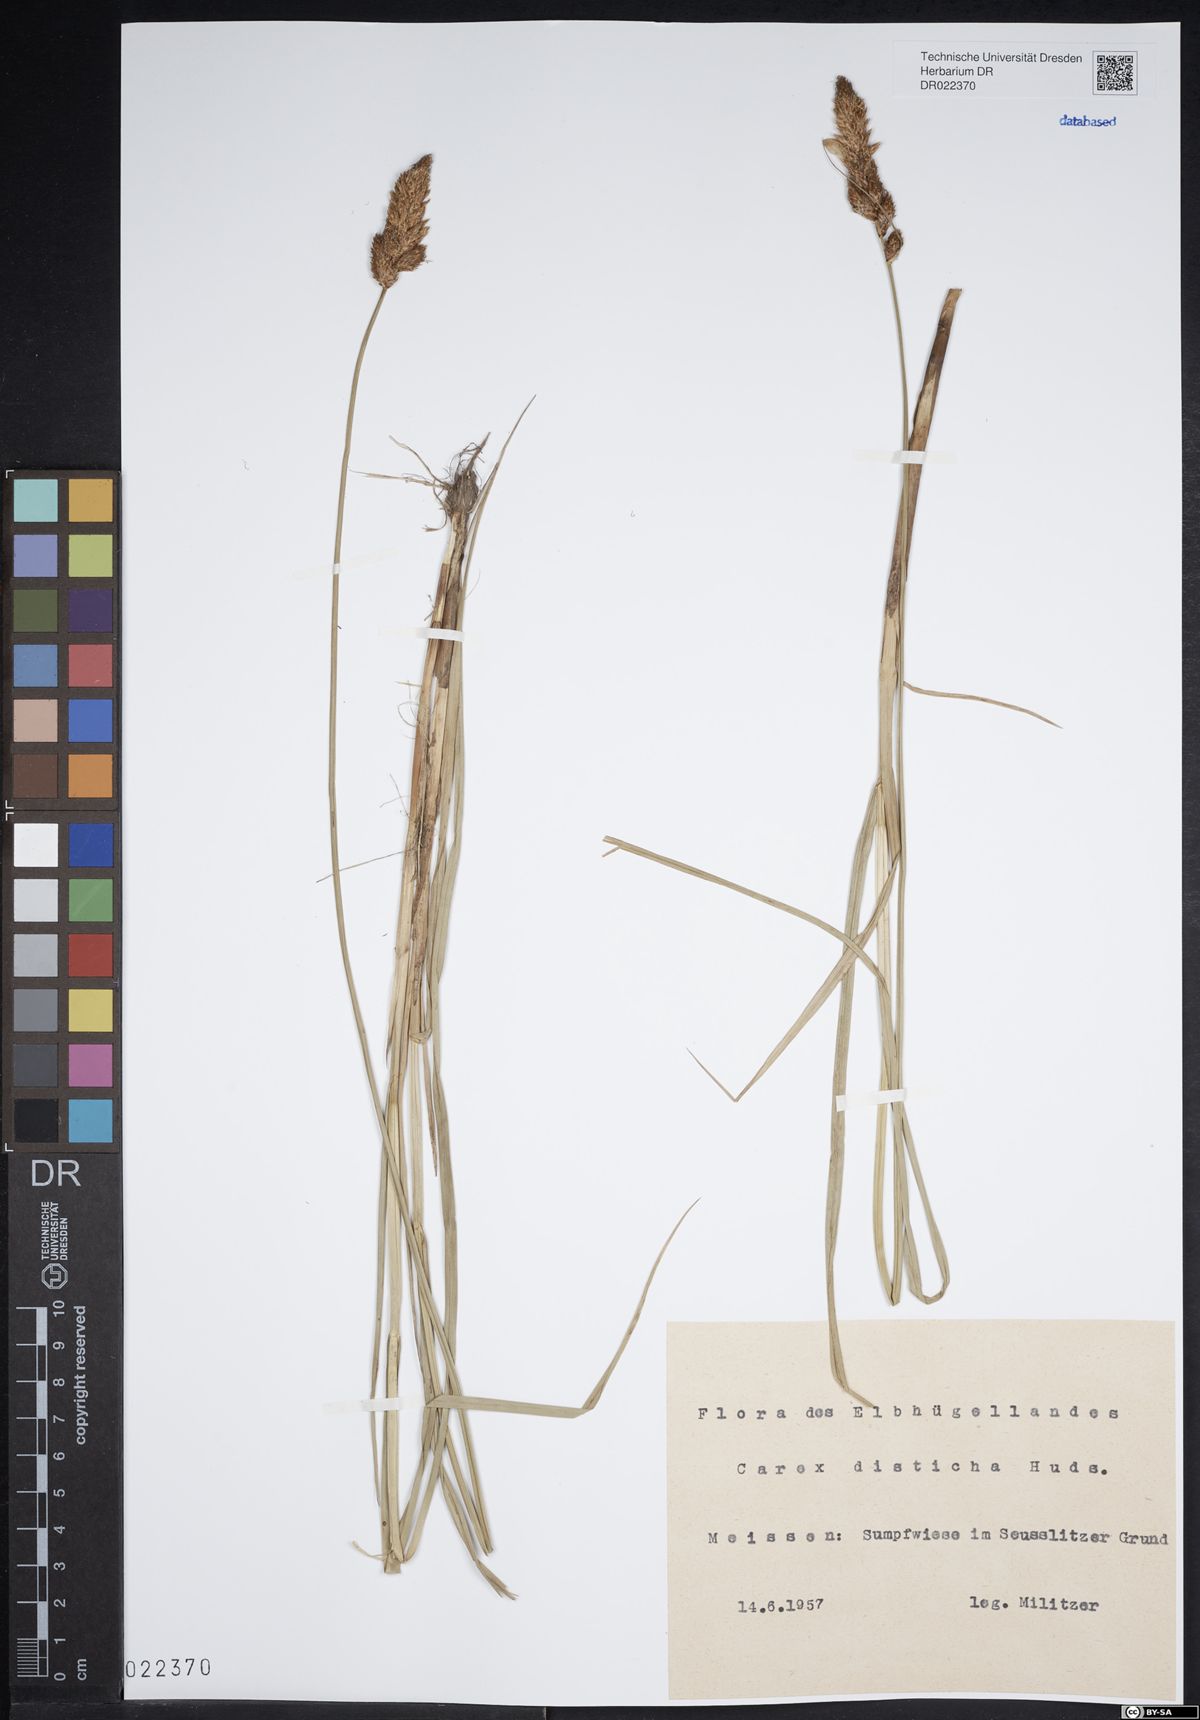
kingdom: Plantae
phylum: Tracheophyta
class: Liliopsida
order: Poales
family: Cyperaceae
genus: Carex
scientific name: Carex disticha
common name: Brown sedge
